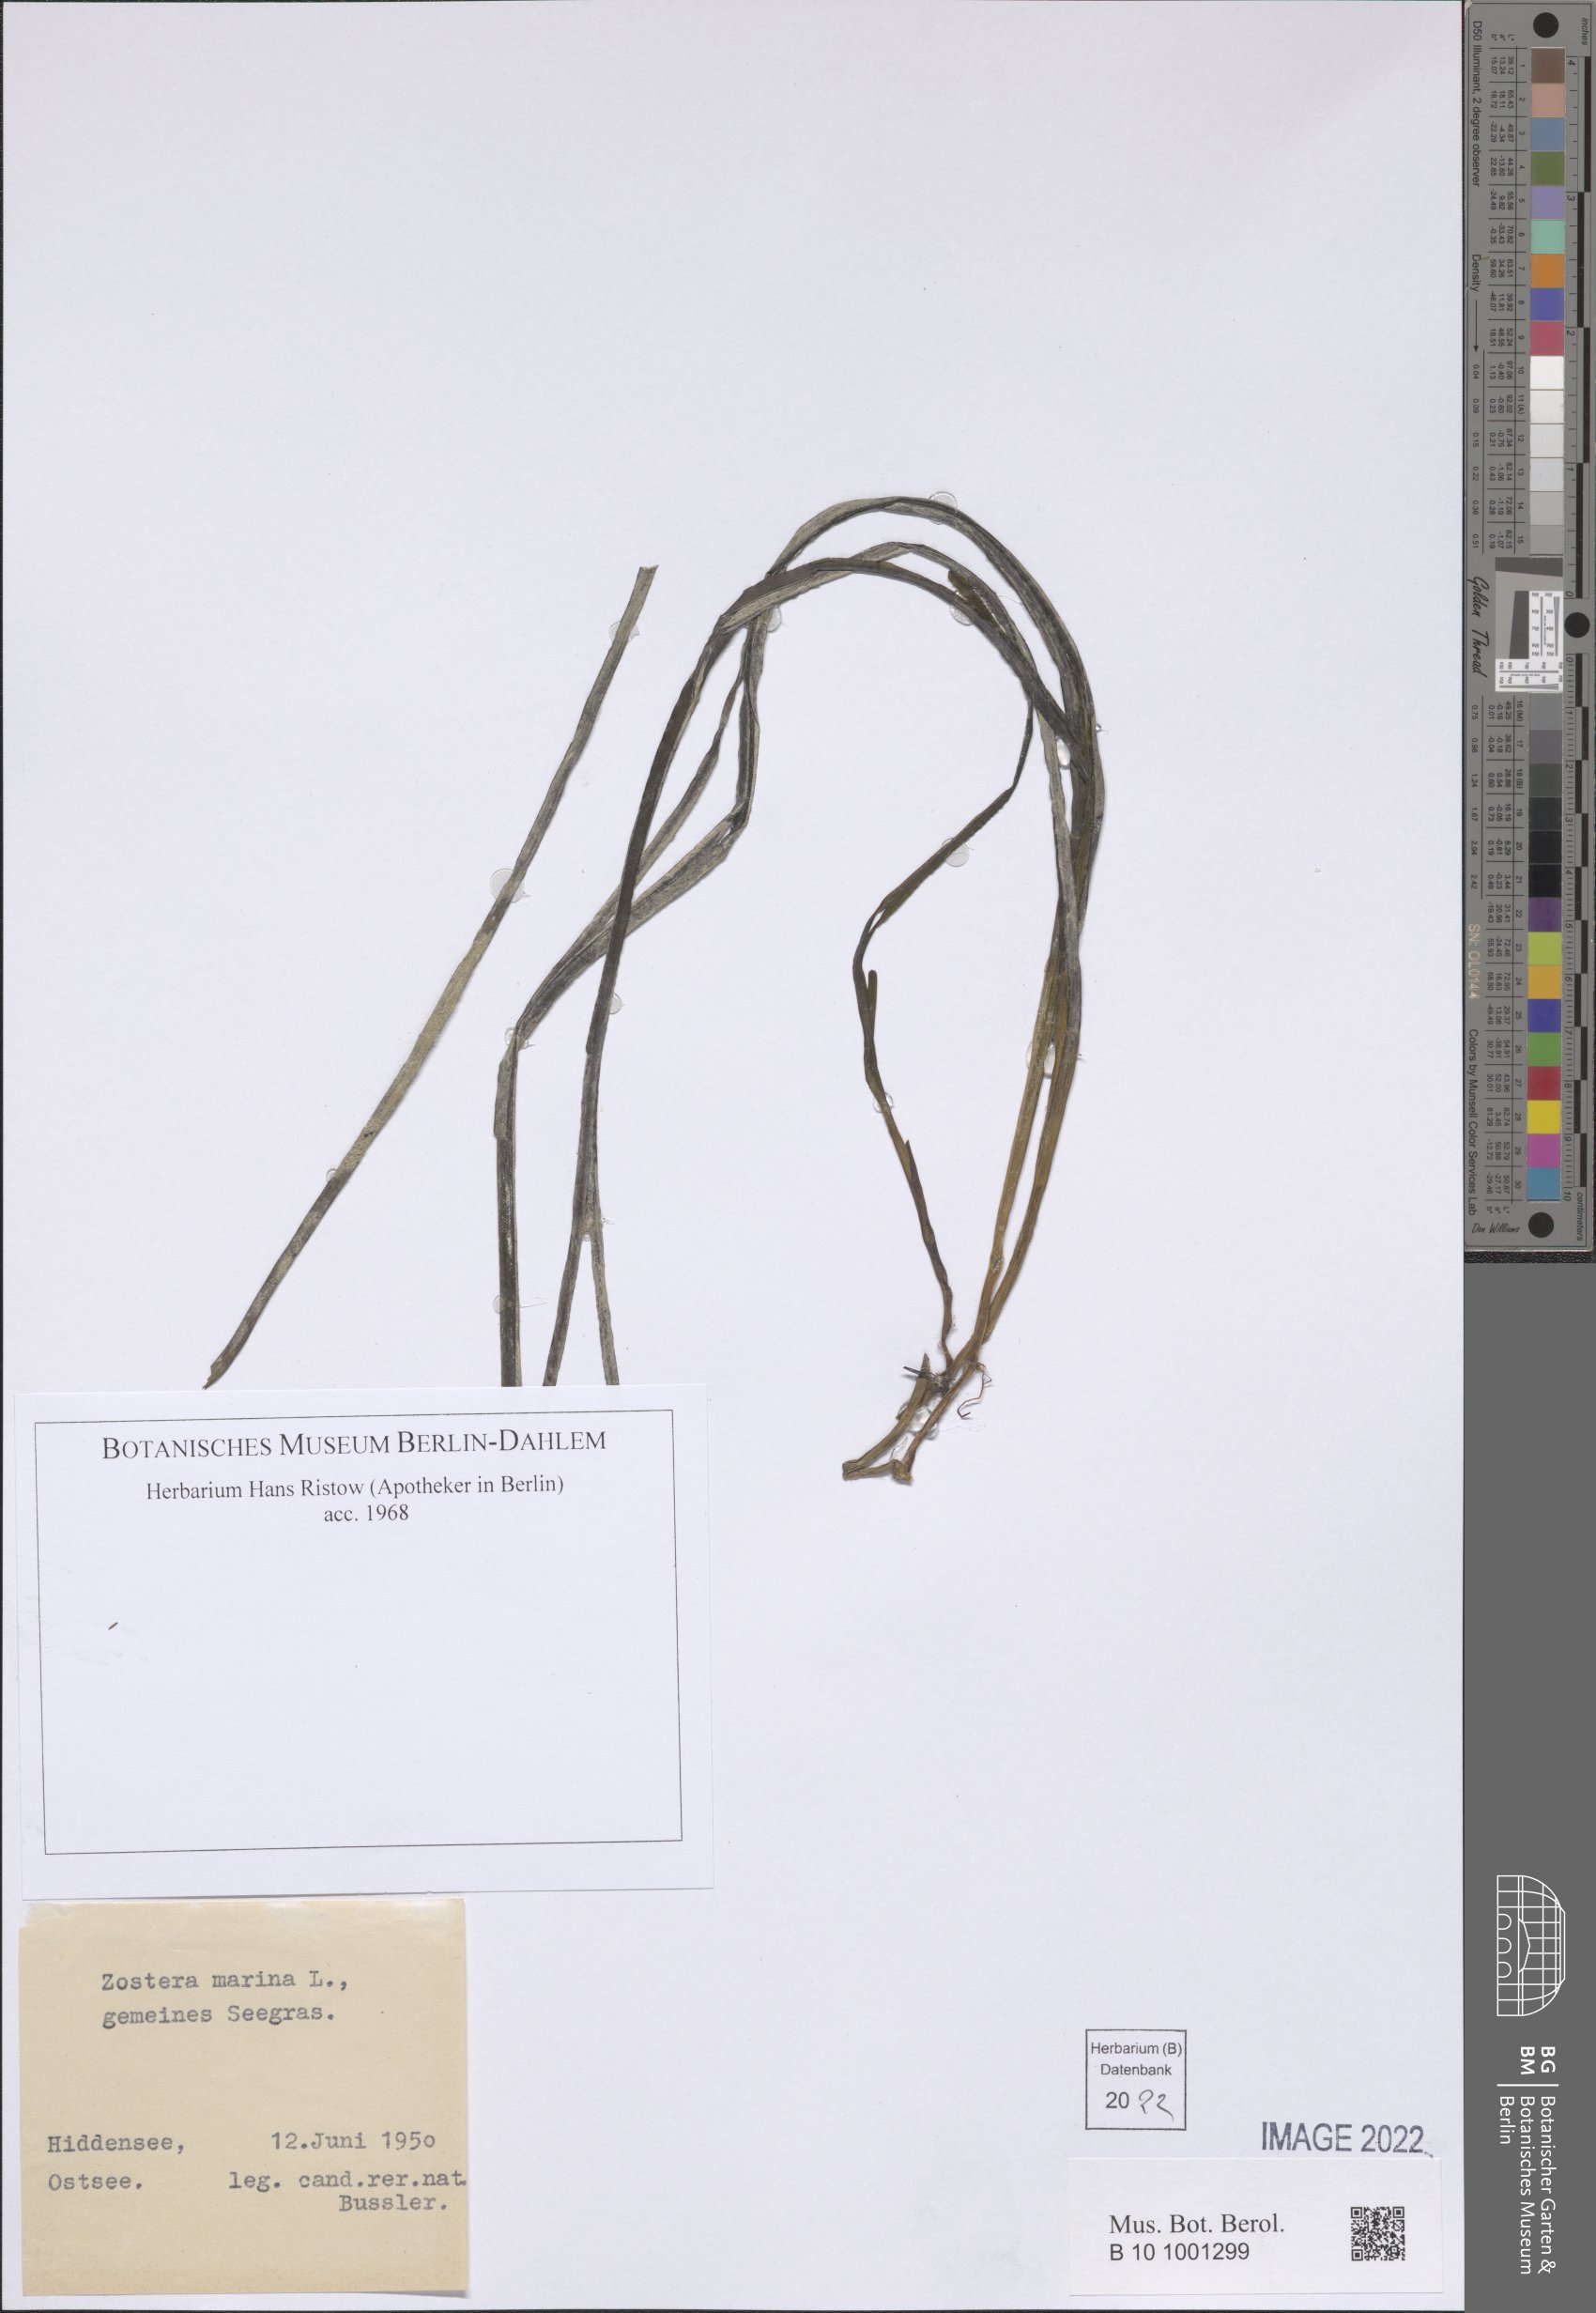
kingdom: Plantae
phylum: Tracheophyta
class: Liliopsida
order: Alismatales
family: Zosteraceae
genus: Zostera
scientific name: Zostera marina
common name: Eelgrass
